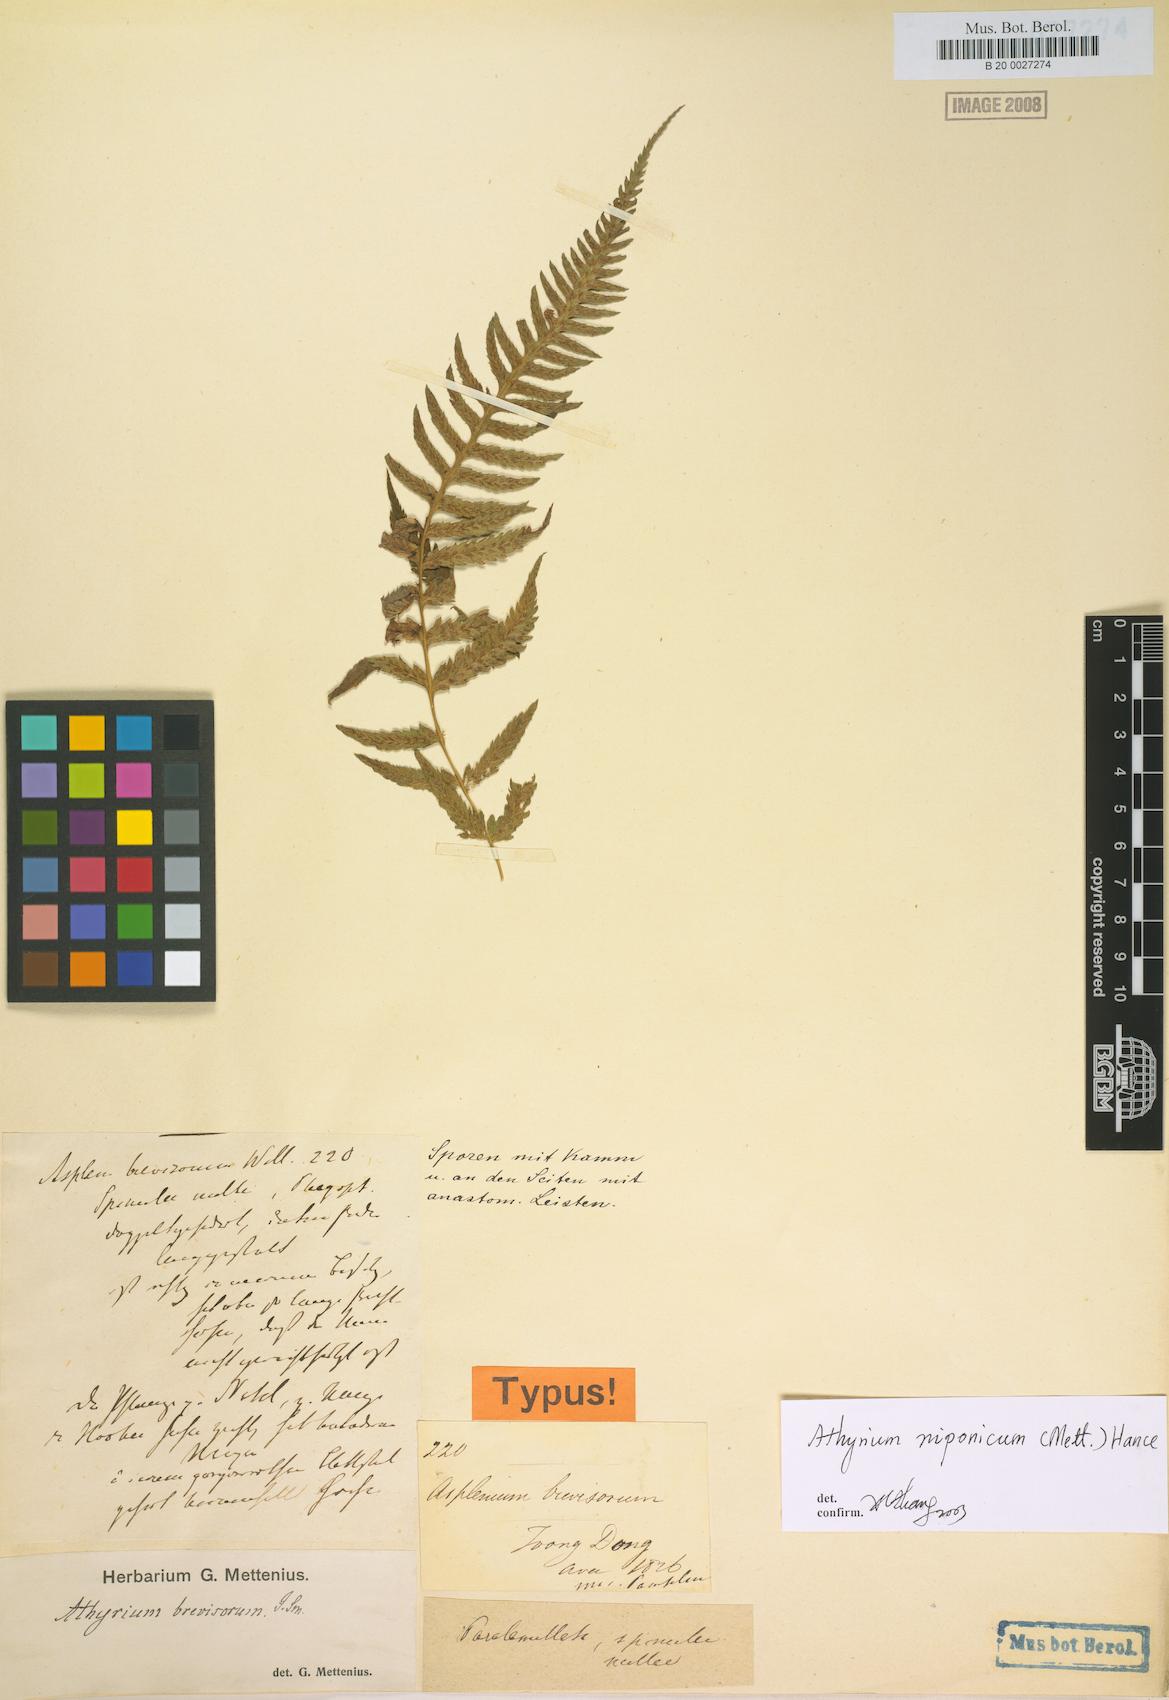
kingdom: Plantae
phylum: Tracheophyta
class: Polypodiopsida
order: Polypodiales
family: Athyriaceae
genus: Anisocampium
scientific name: Anisocampium niponicum
